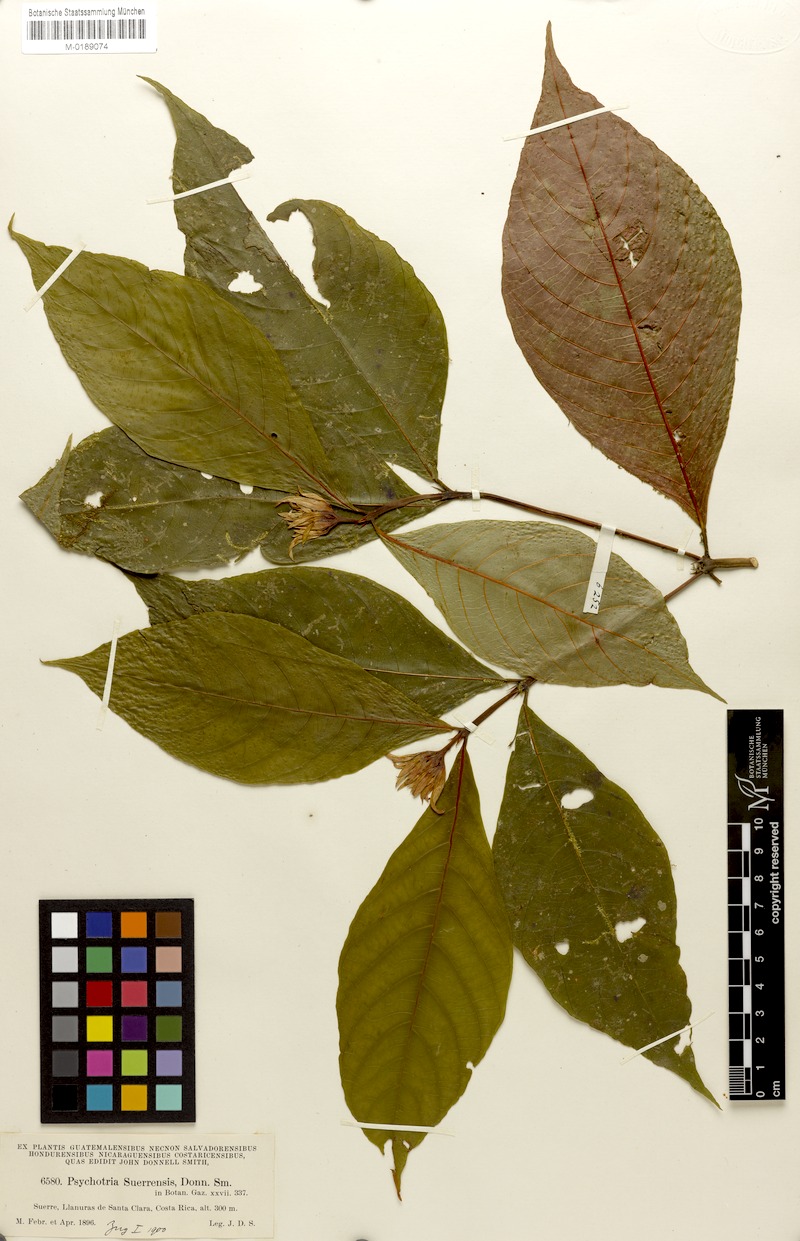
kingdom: Plantae
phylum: Tracheophyta
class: Magnoliopsida
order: Gentianales
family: Rubiaceae
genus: Palicourea
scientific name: Palicourea suerrensis
